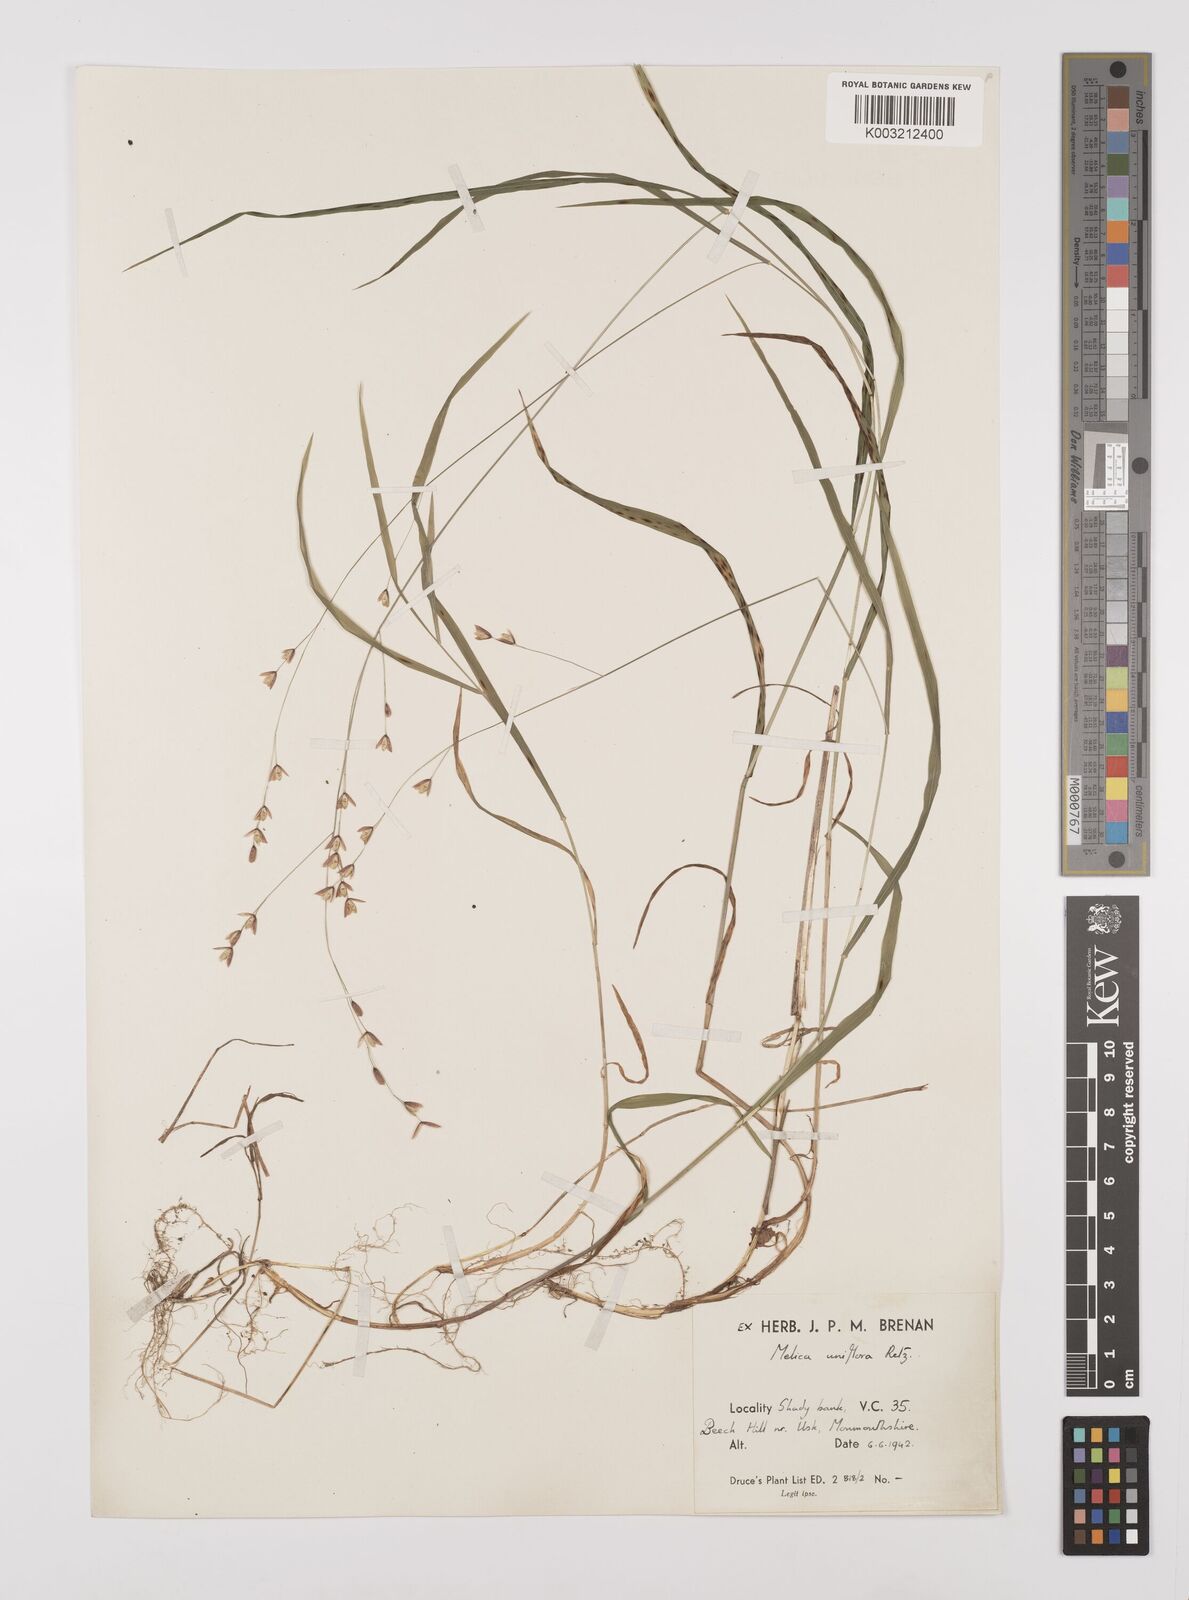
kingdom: Plantae
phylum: Tracheophyta
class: Liliopsida
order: Poales
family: Poaceae
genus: Melica
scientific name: Melica uniflora
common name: Wood melick
